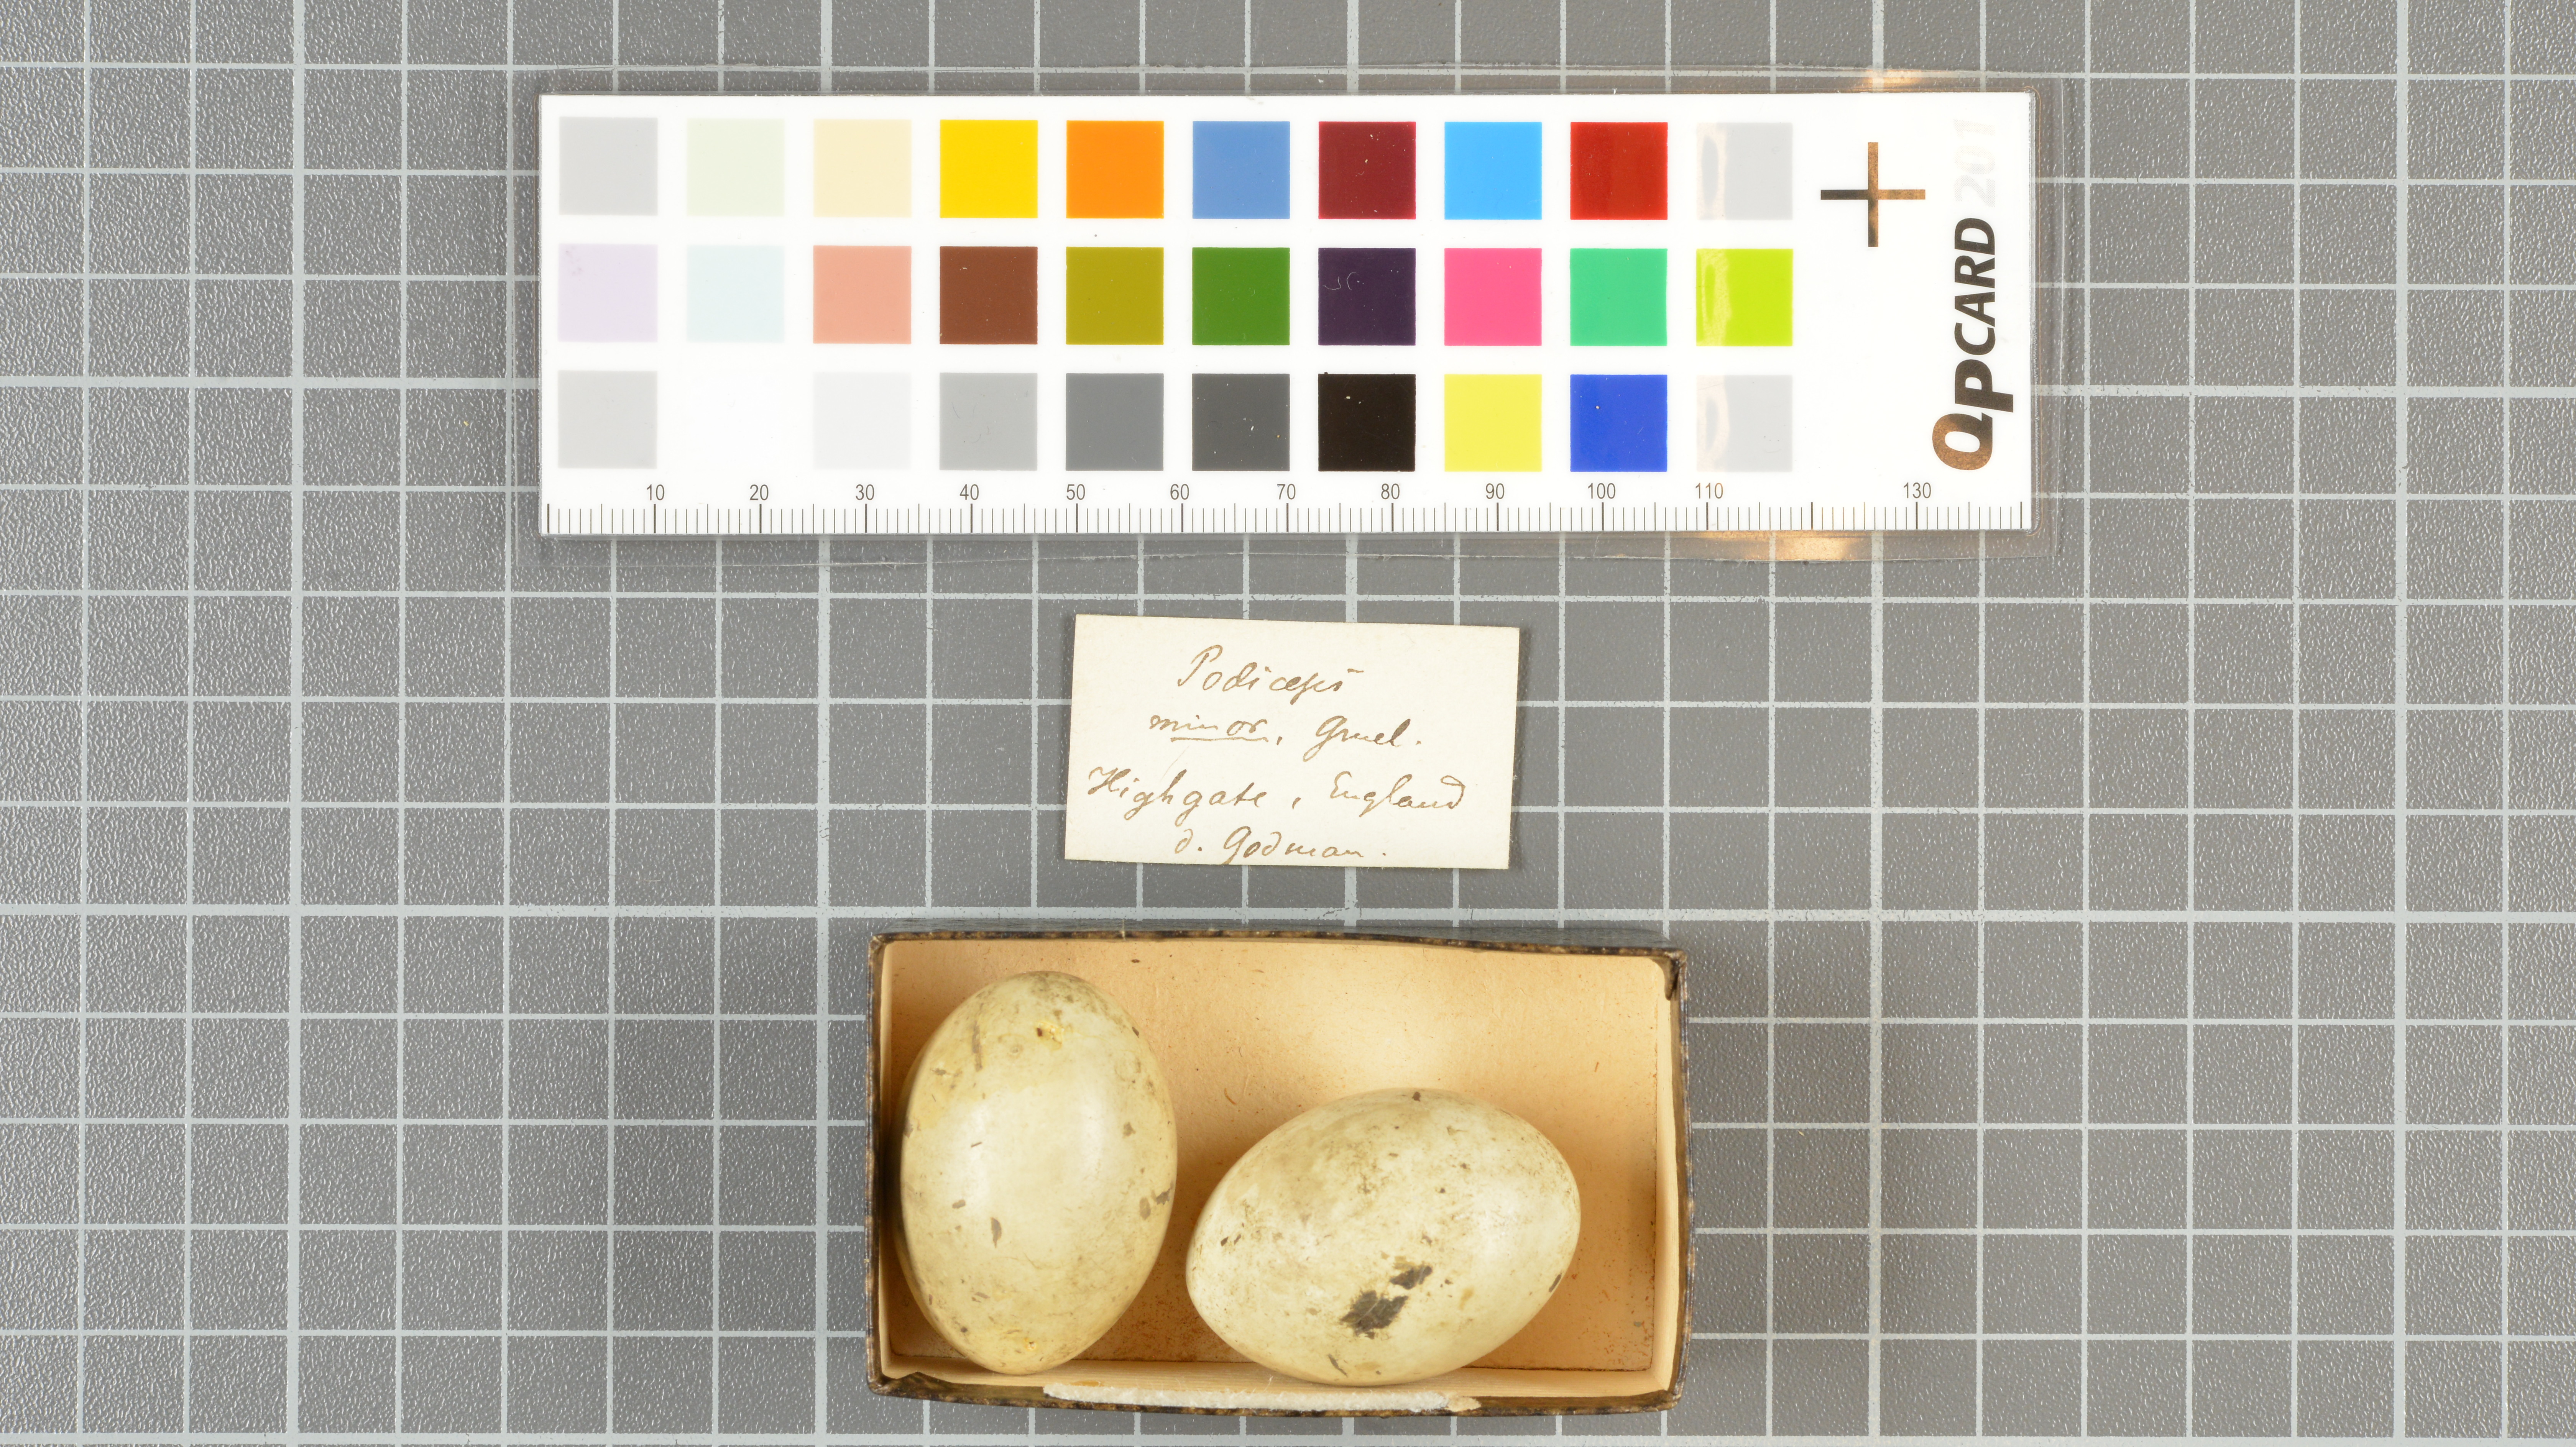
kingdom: Animalia
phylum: Chordata
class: Aves
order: Podicipediformes
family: Podicipedidae
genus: Tachybaptus
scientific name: Tachybaptus ruficollis
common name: Little grebe
